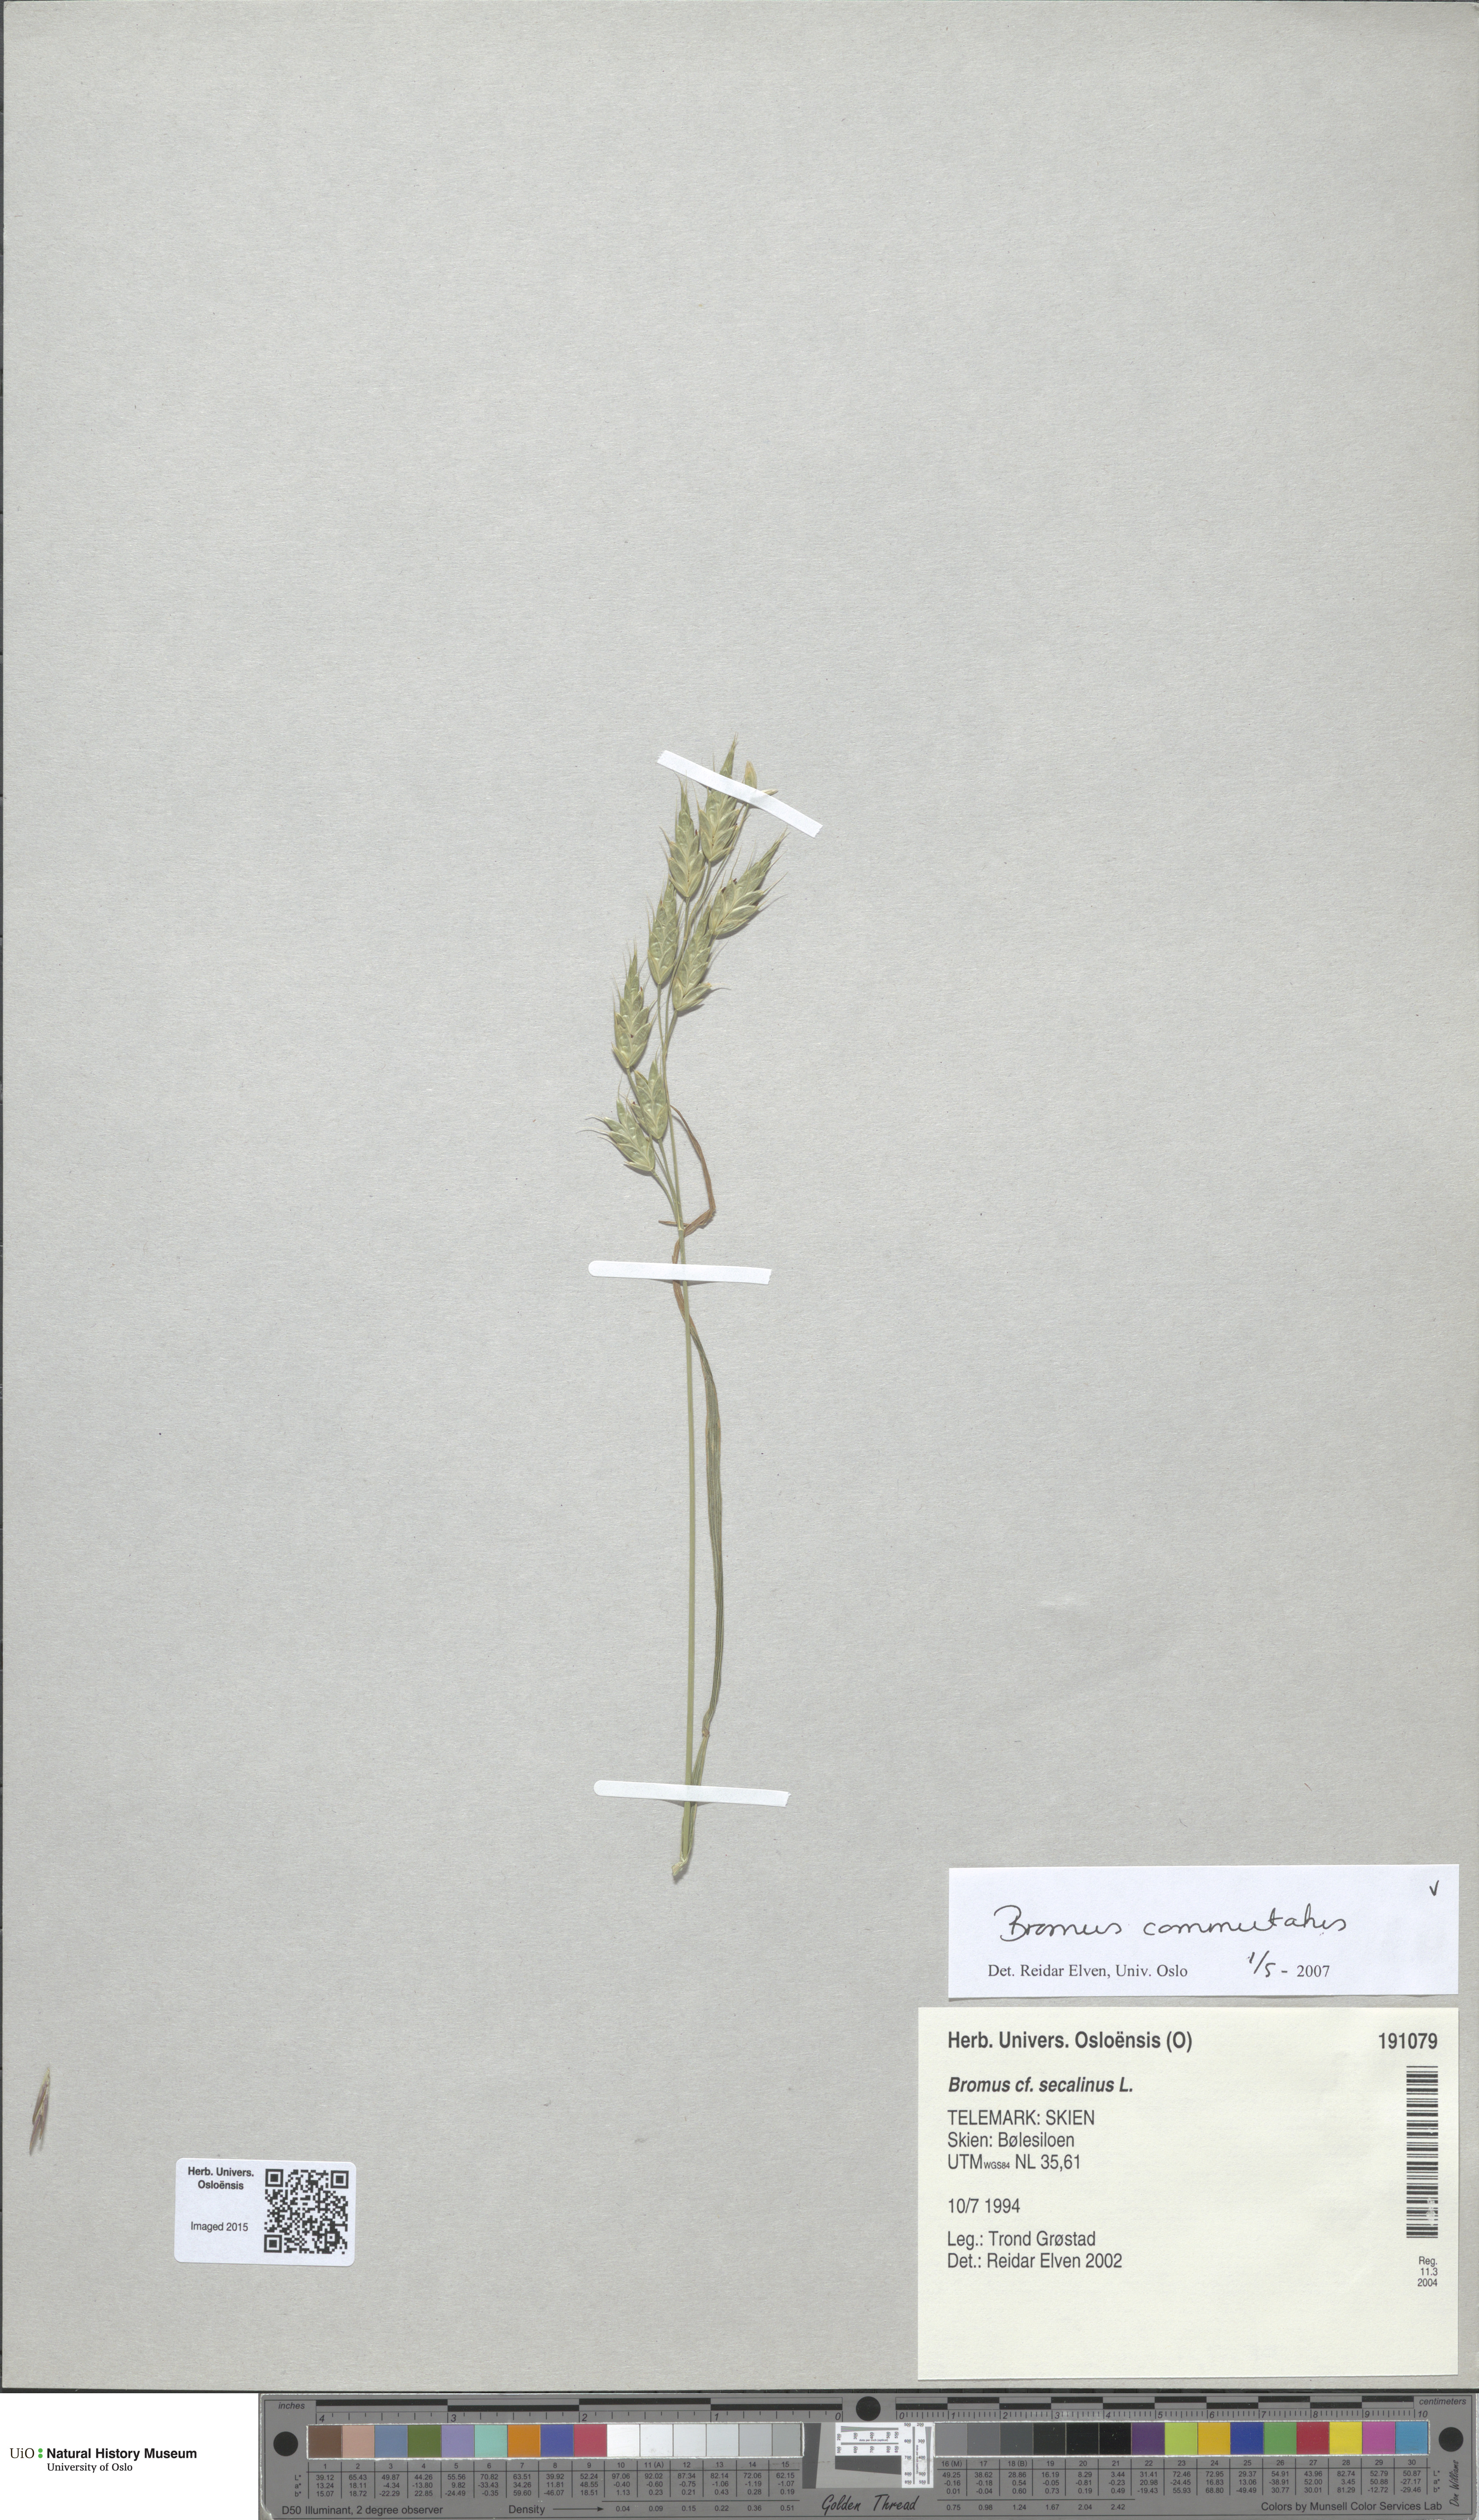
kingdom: Plantae
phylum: Tracheophyta
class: Liliopsida
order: Poales
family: Poaceae
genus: Bromus
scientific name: Bromus commutatus
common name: Meadow brome
